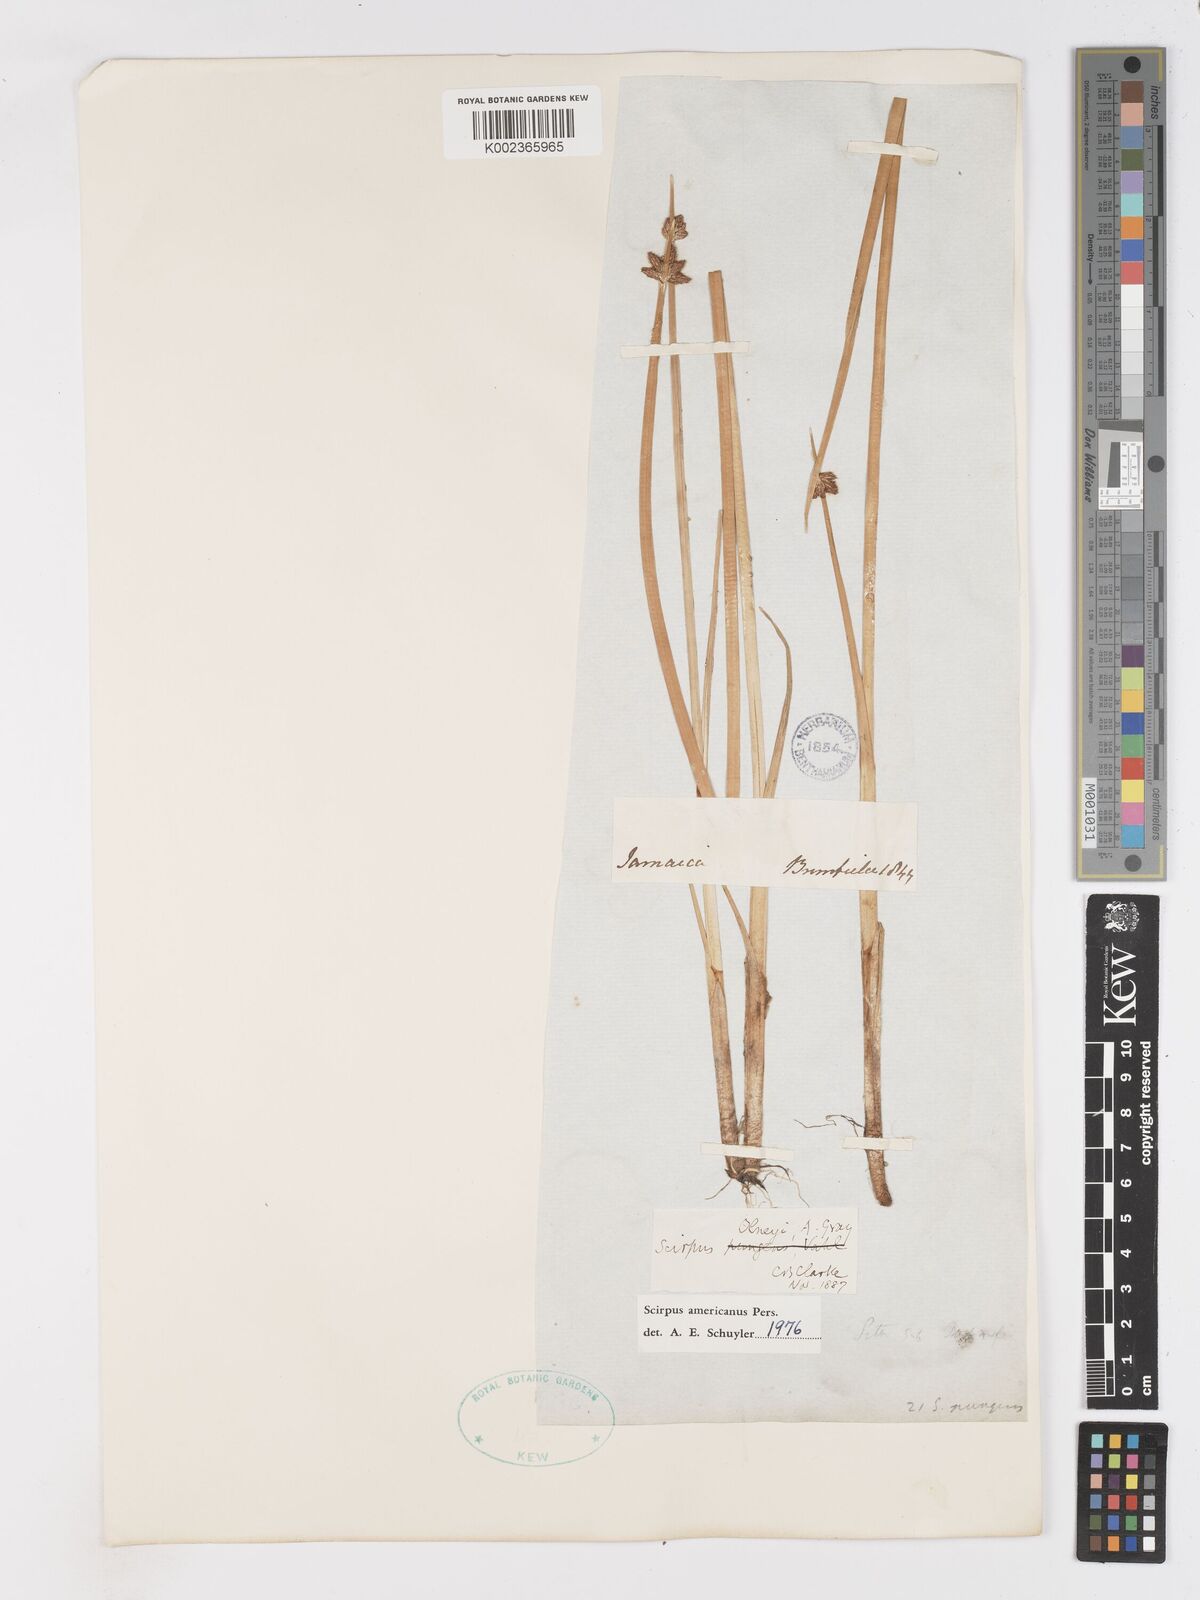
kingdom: Plantae
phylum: Tracheophyta
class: Liliopsida
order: Poales
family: Cyperaceae
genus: Schoenoplectus
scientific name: Schoenoplectus americanus
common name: American three-square bulrush
